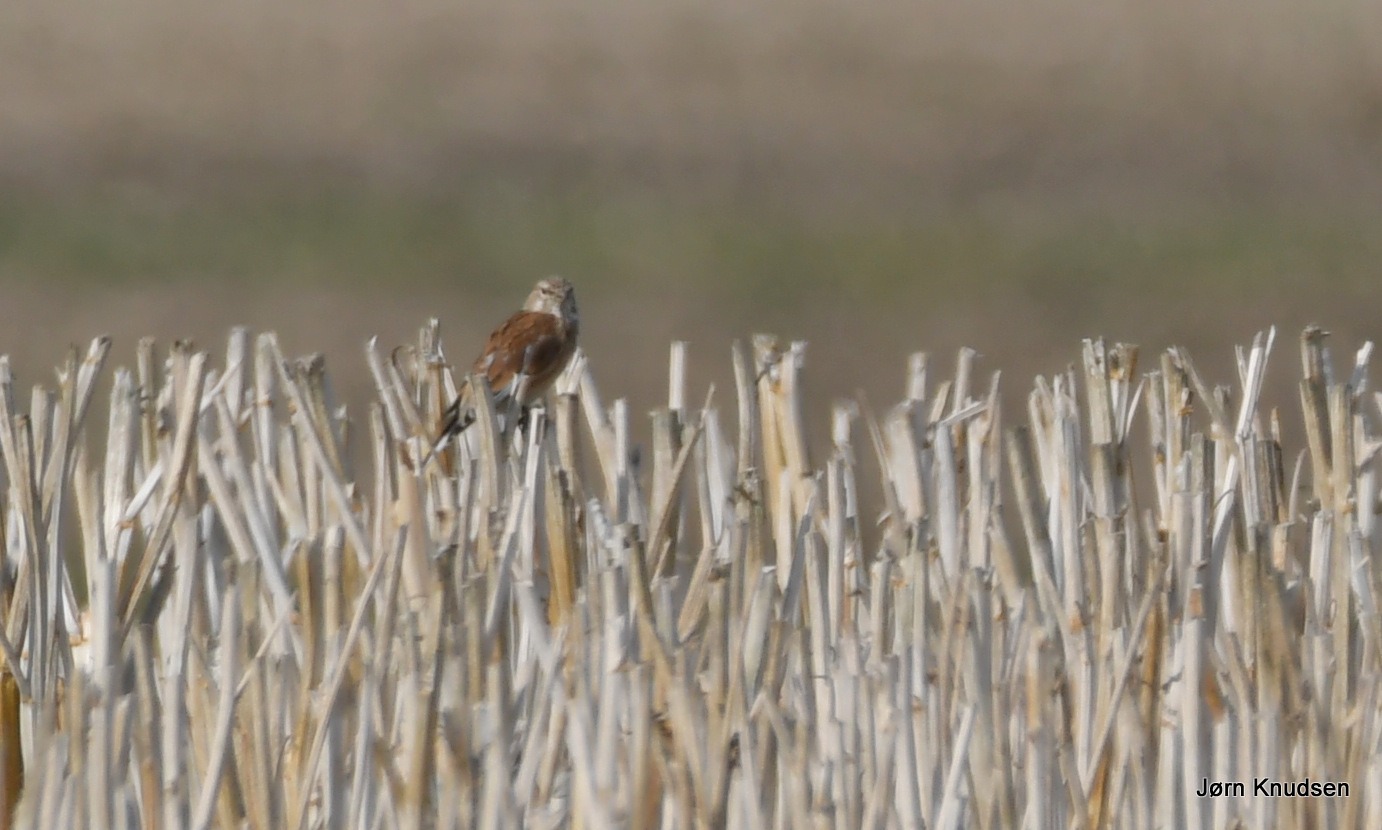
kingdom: Animalia
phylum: Chordata
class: Aves
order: Passeriformes
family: Fringillidae
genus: Linaria
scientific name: Linaria cannabina
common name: Tornirisk
